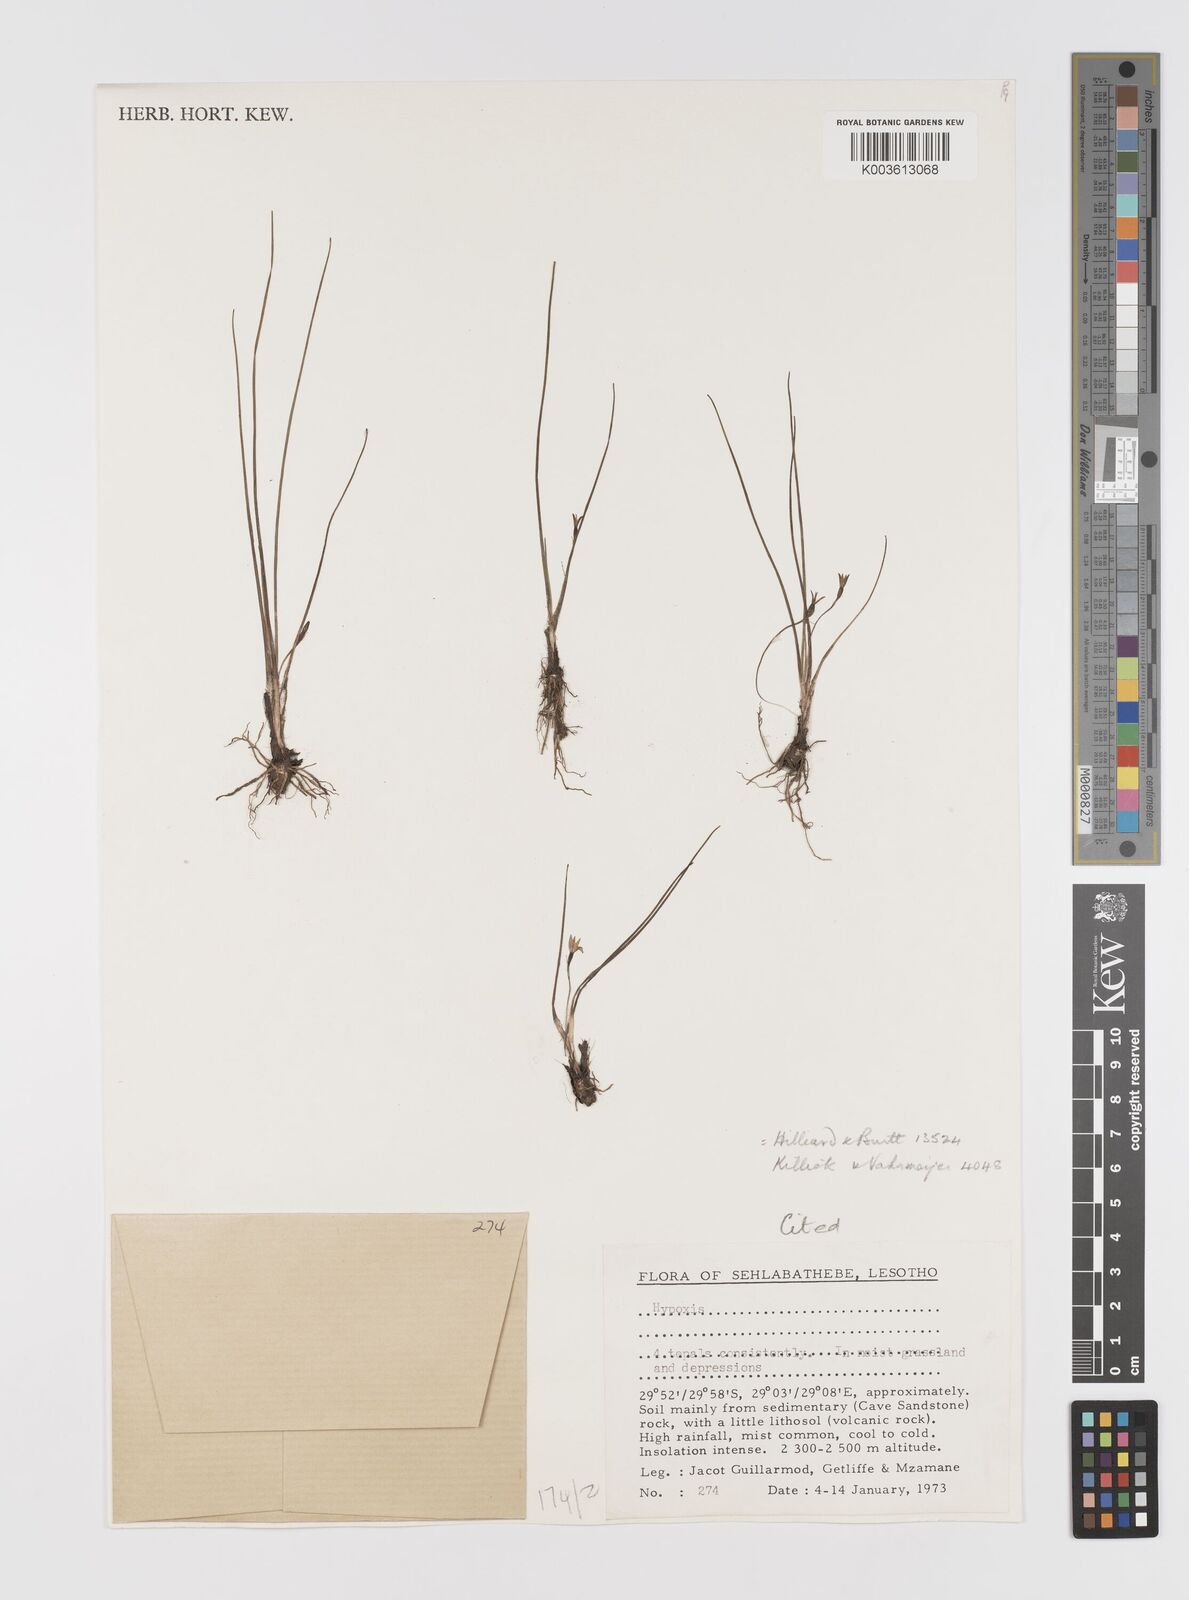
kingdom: Plantae
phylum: Tracheophyta
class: Liliopsida
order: Asparagales
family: Hypoxidaceae
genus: Hypoxis
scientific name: Hypoxis tetramera
